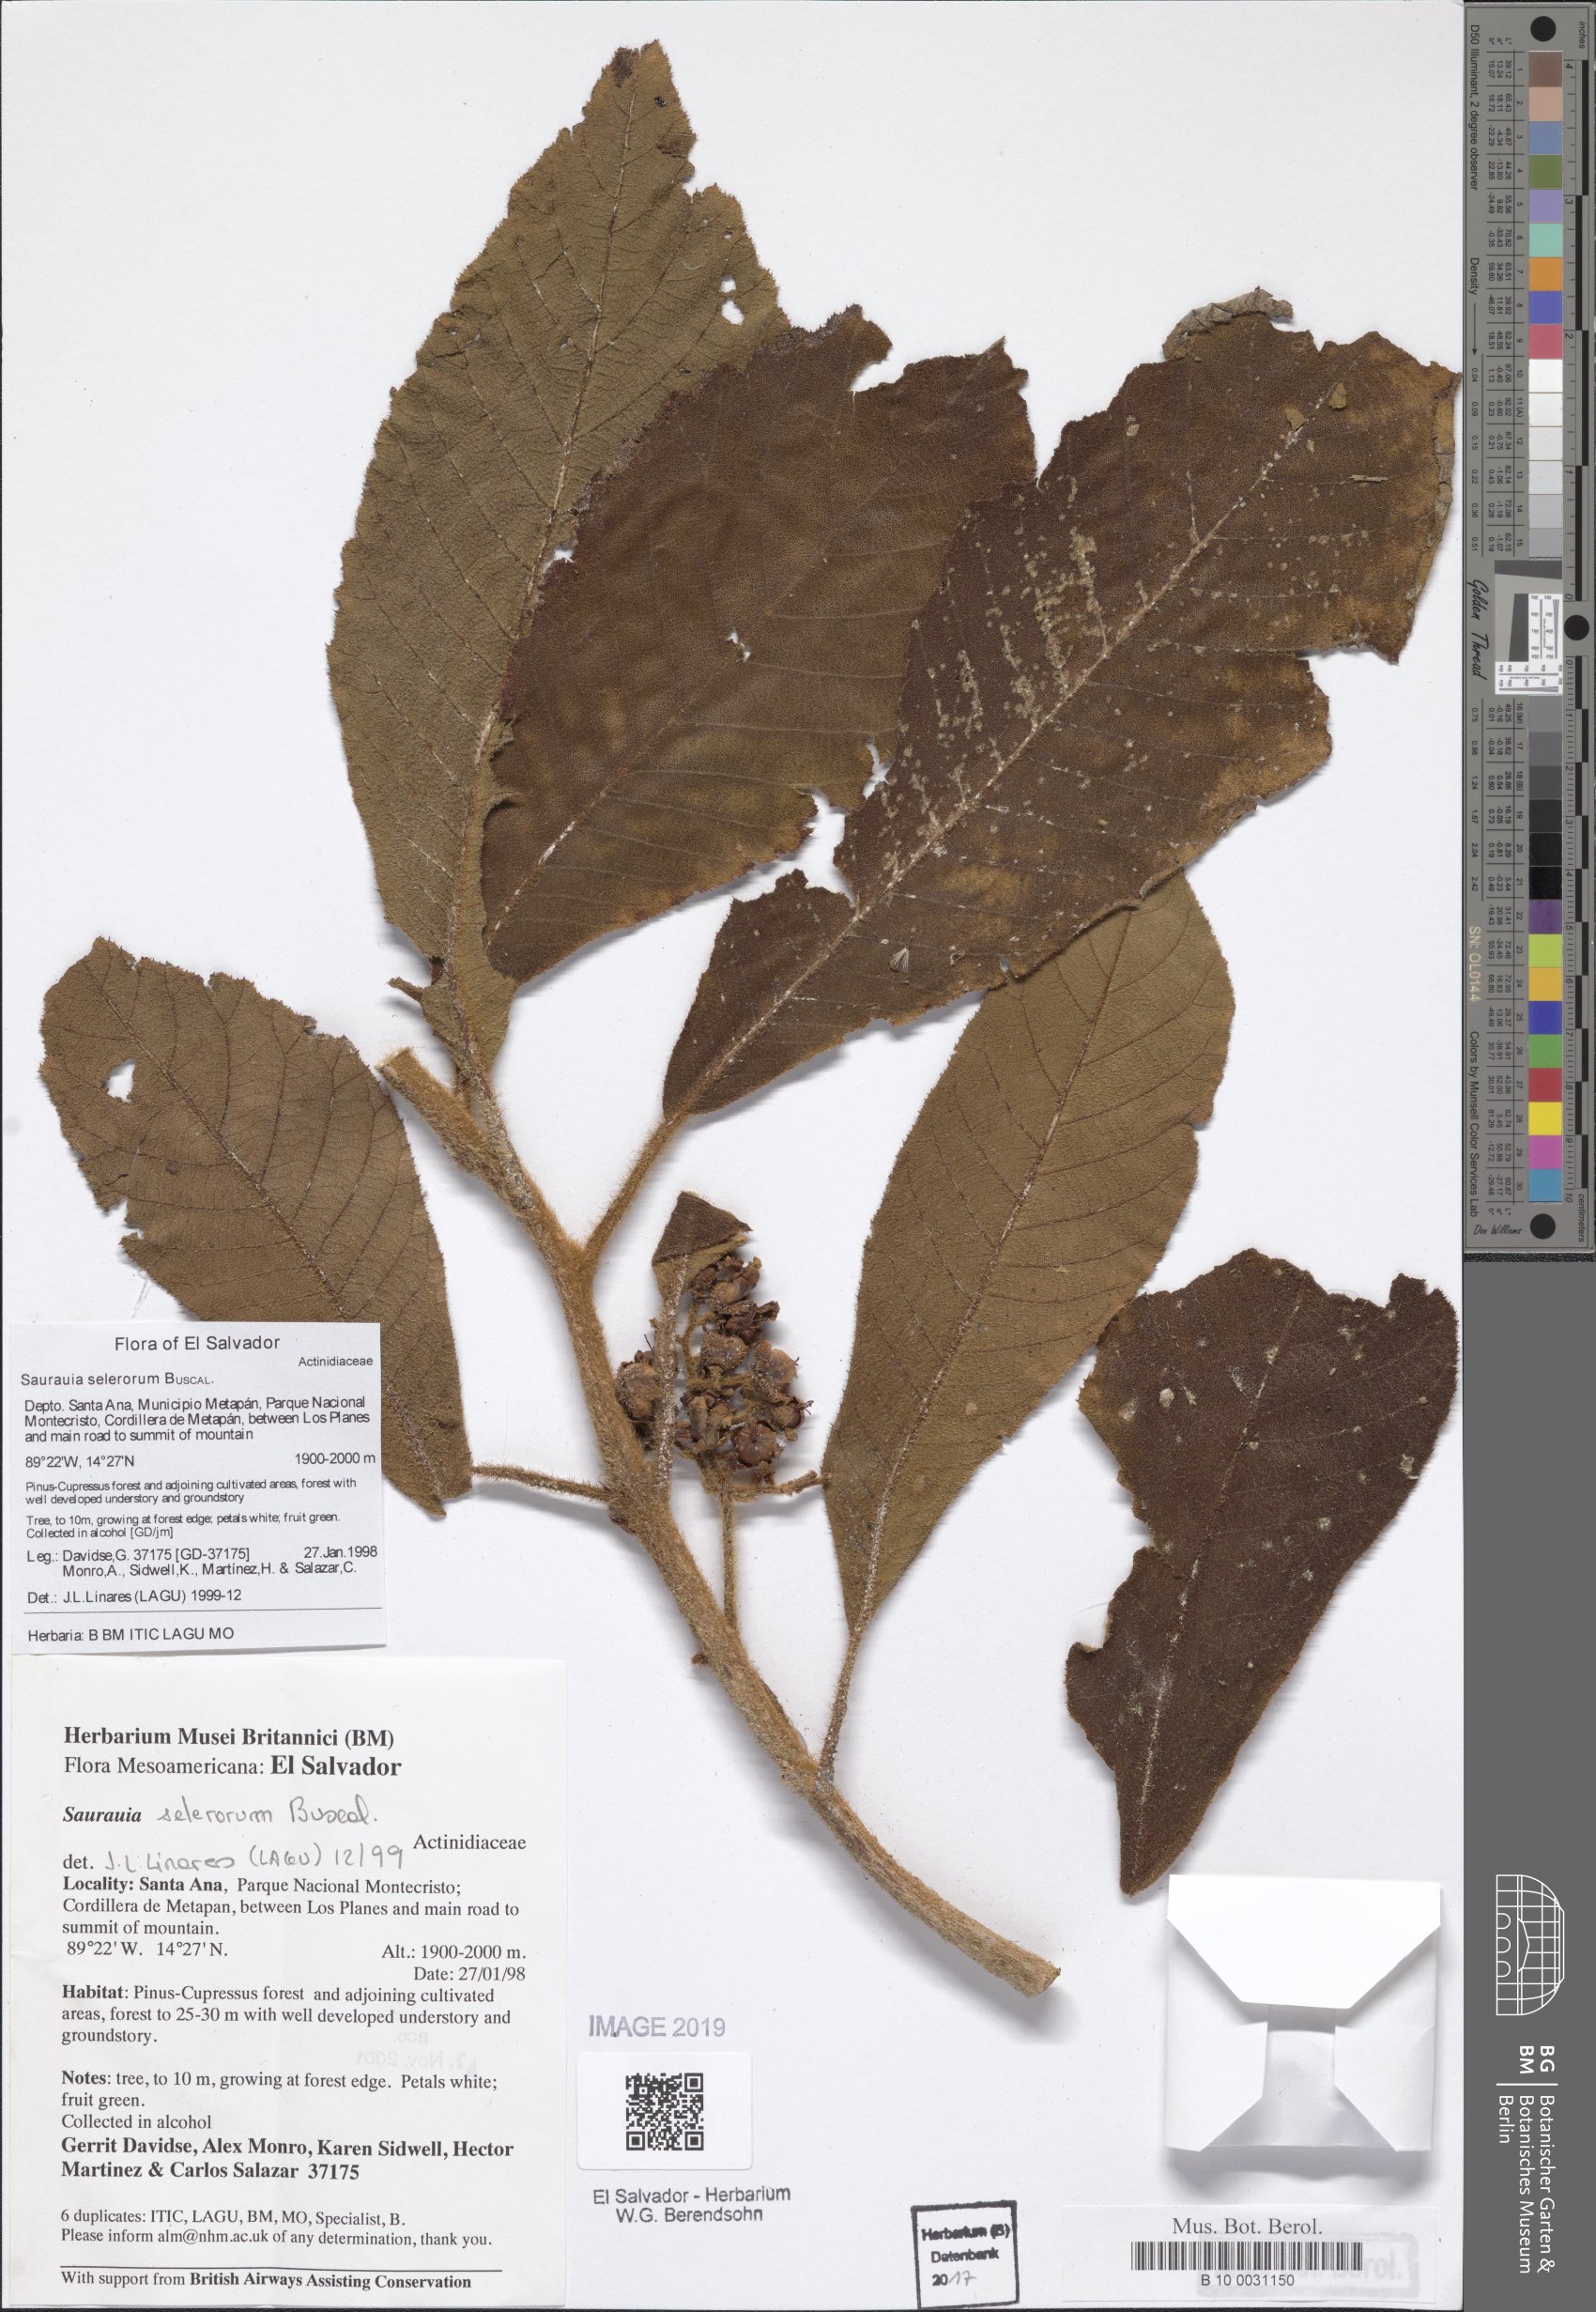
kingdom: Plantae
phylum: Tracheophyta
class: Magnoliopsida
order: Ericales
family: Actinidiaceae
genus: Saurauia
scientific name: Saurauia selerorum
